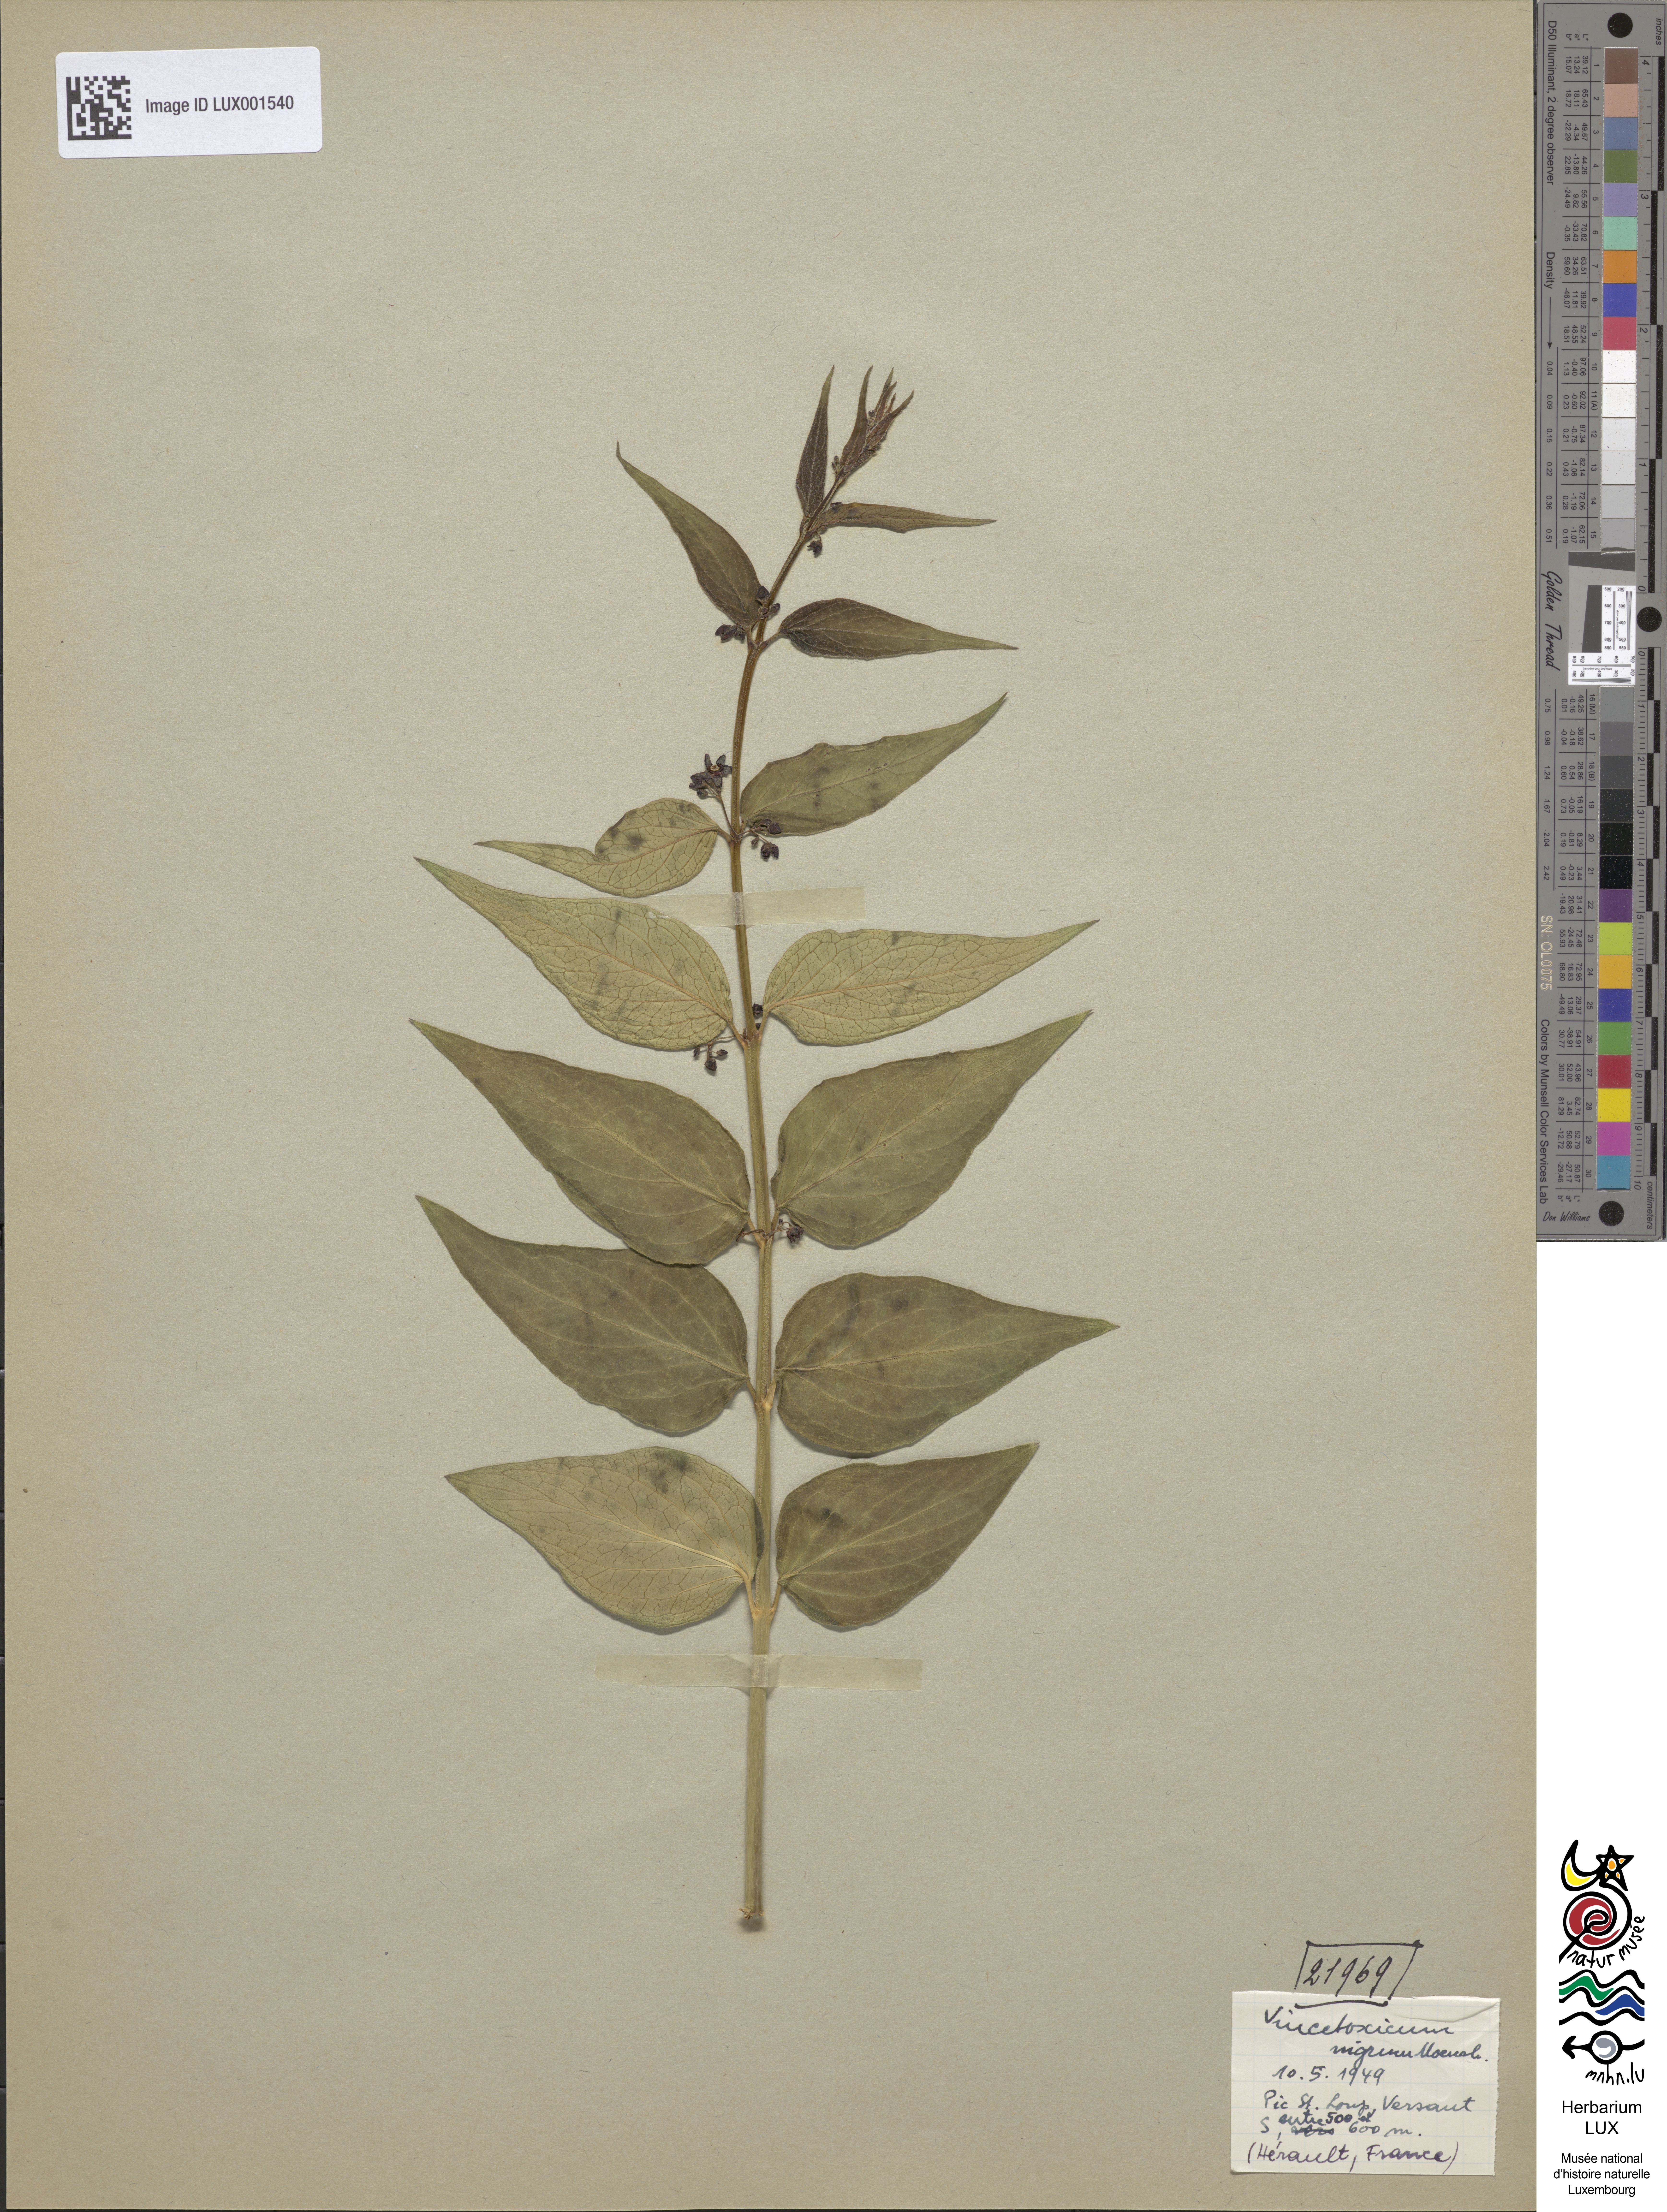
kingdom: Plantae
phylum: Tracheophyta
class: Magnoliopsida
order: Gentianales
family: Apocynaceae
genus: Vincetoxicum
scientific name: Vincetoxicum nigrum
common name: Black swallow-wort
